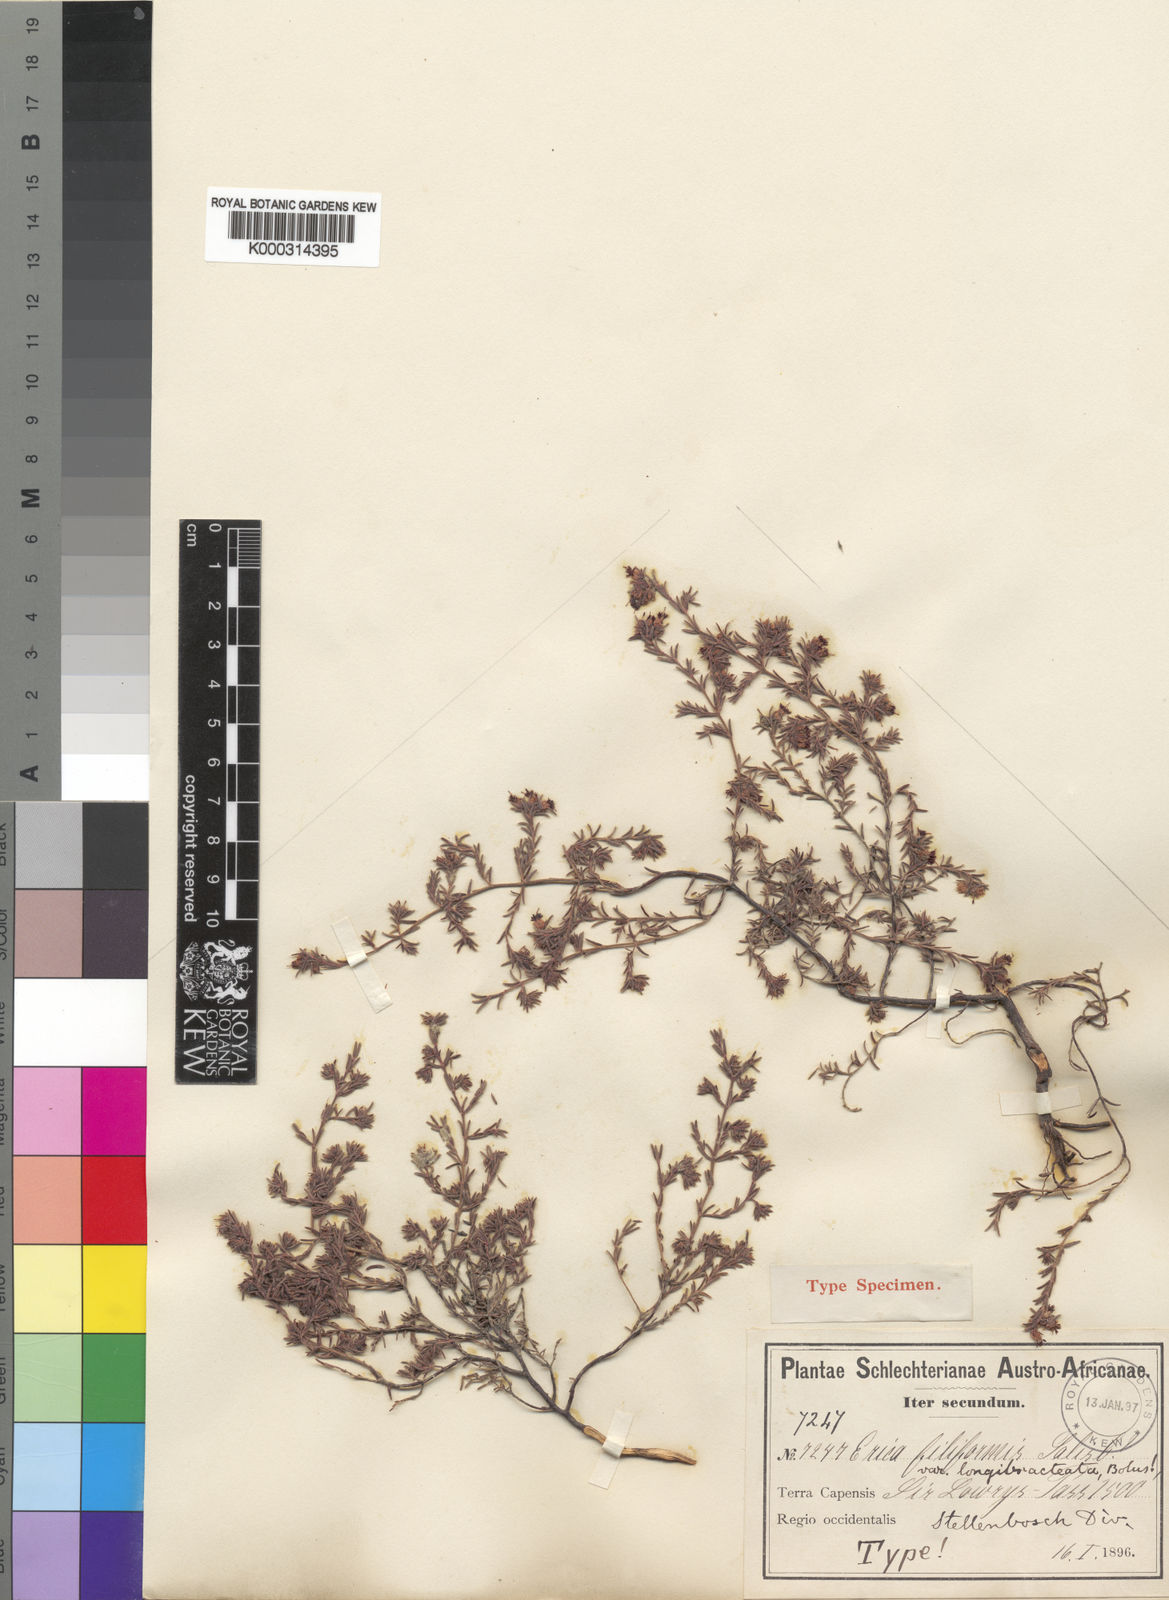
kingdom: Plantae
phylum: Tracheophyta
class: Magnoliopsida
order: Ericales
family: Ericaceae
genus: Erica
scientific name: Erica filiformis
